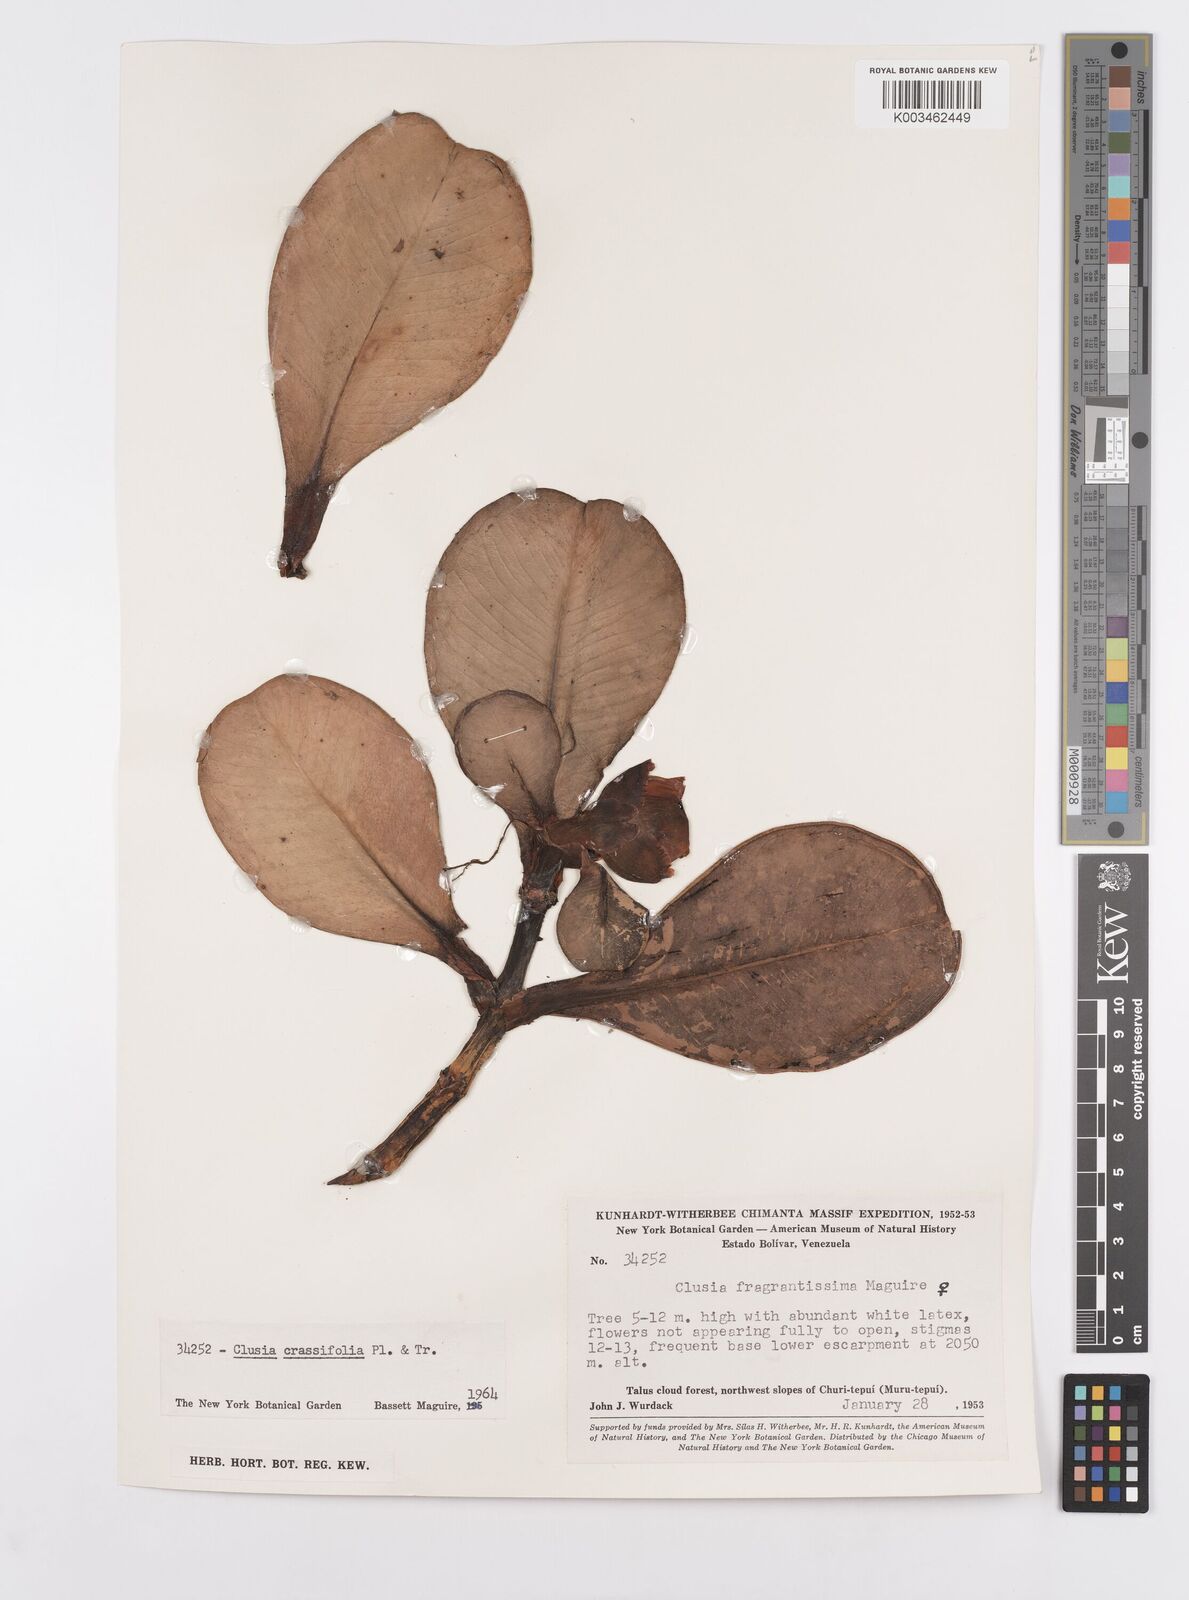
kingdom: Plantae
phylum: Tracheophyta
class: Magnoliopsida
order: Malpighiales
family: Clusiaceae
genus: Clusia
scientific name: Clusia crassifolia
